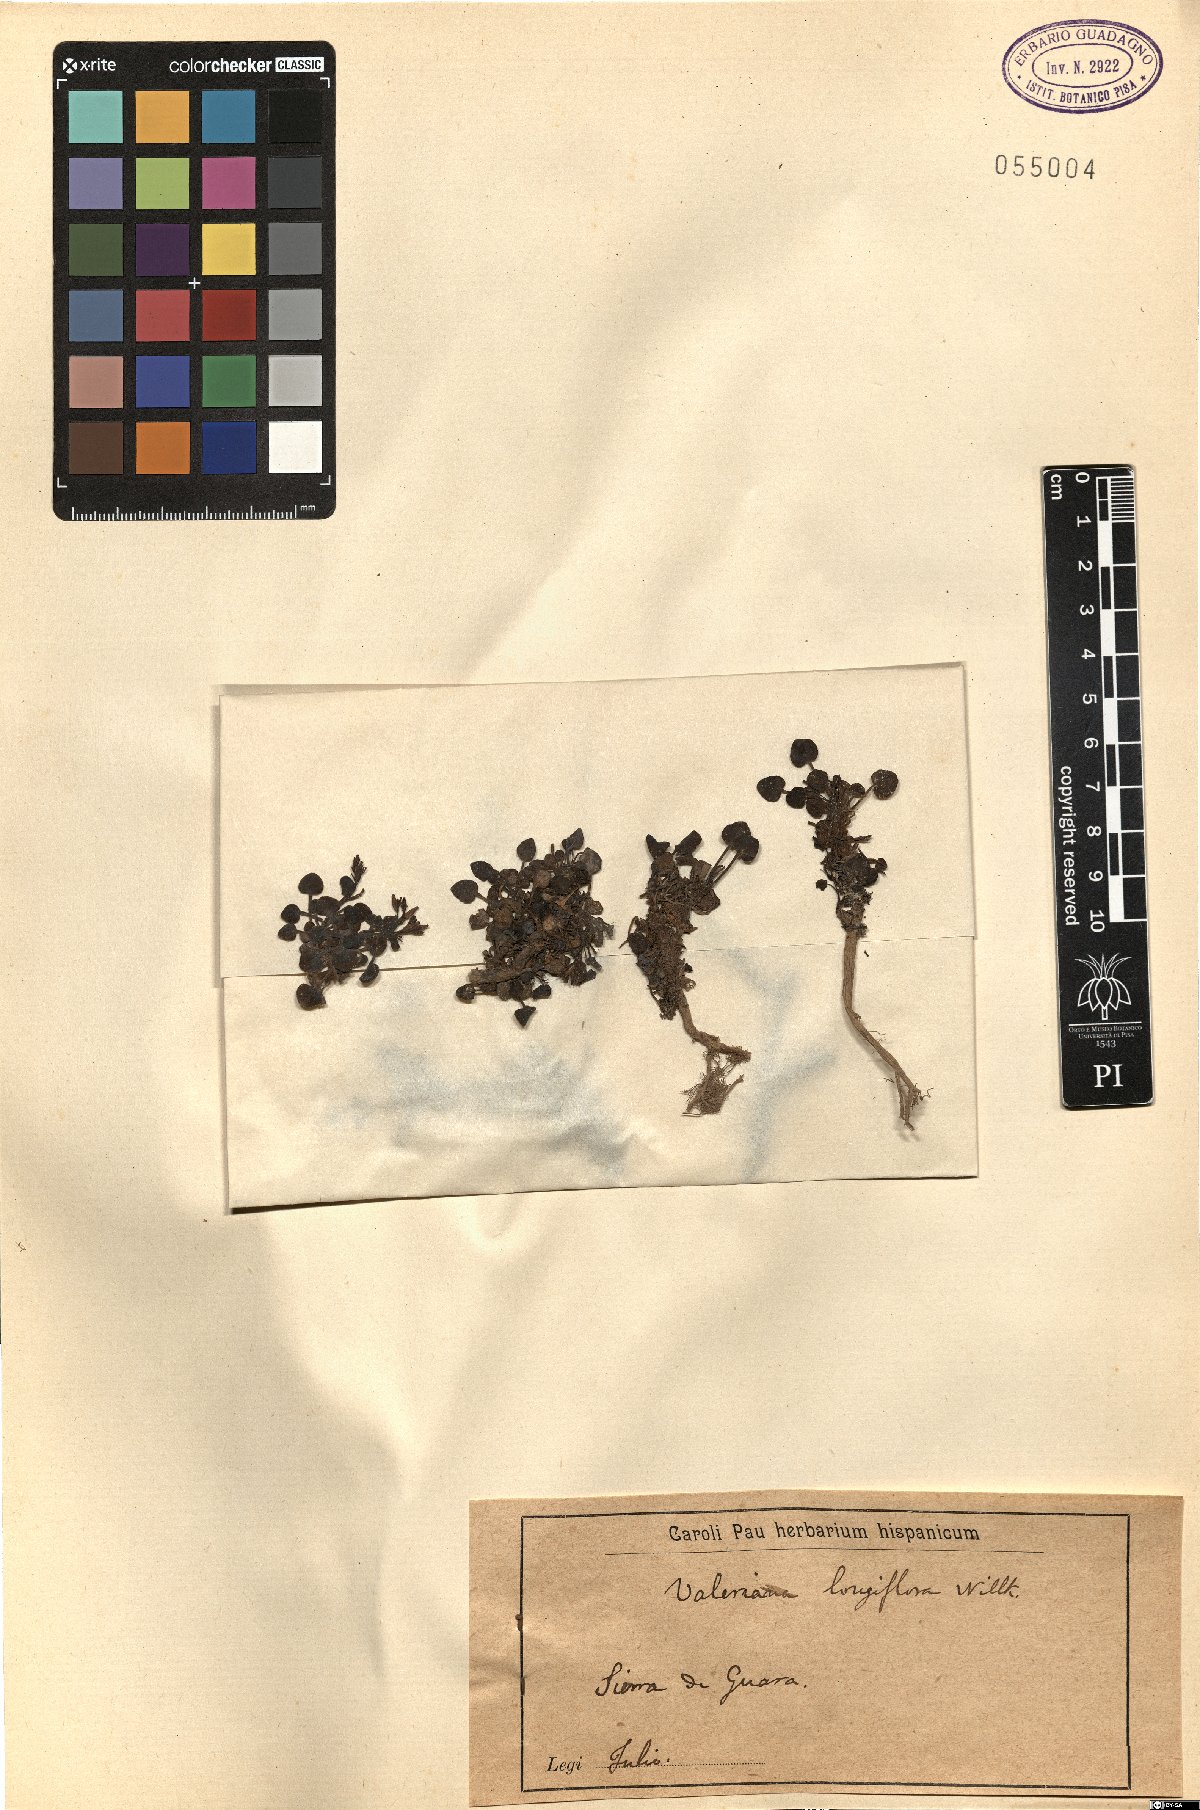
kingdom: Plantae
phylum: Tracheophyta
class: Magnoliopsida
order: Dipsacales
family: Caprifoliaceae
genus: Valeriana
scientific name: Valeriana longiflora
